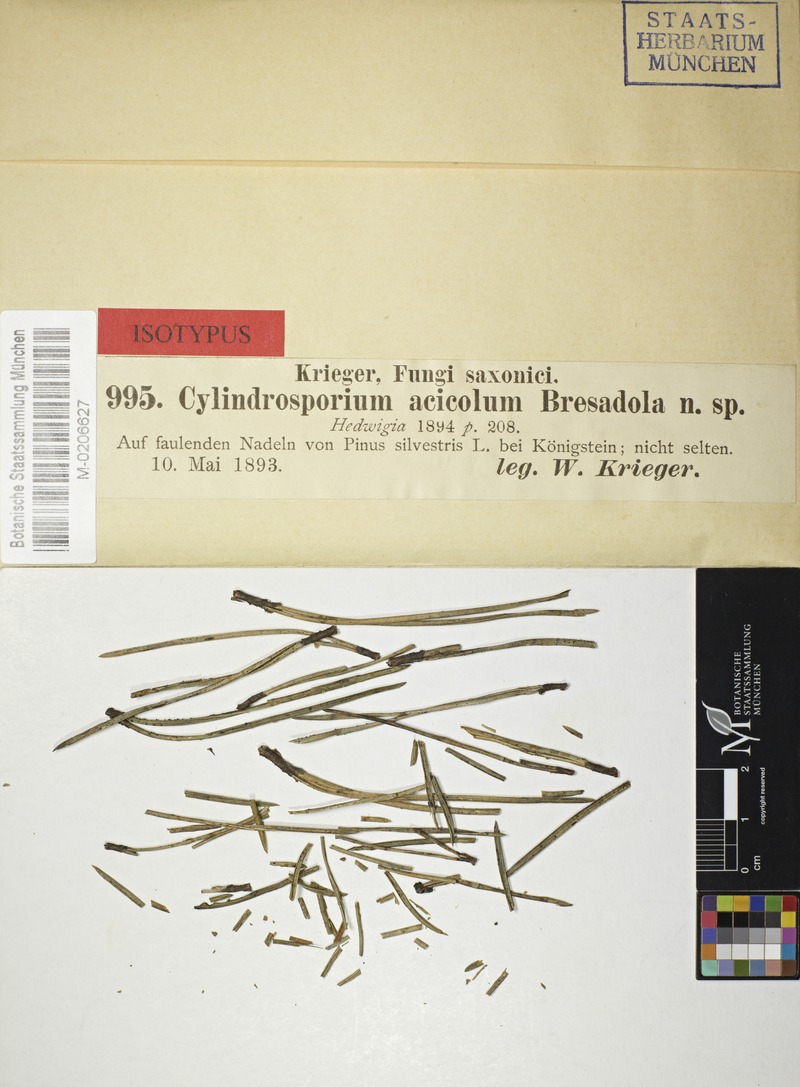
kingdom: Fungi
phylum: Ascomycota
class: Leotiomycetes
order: Helotiales
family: Helotiaceae
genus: Pseudohelotium
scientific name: Pseudohelotium pineti
